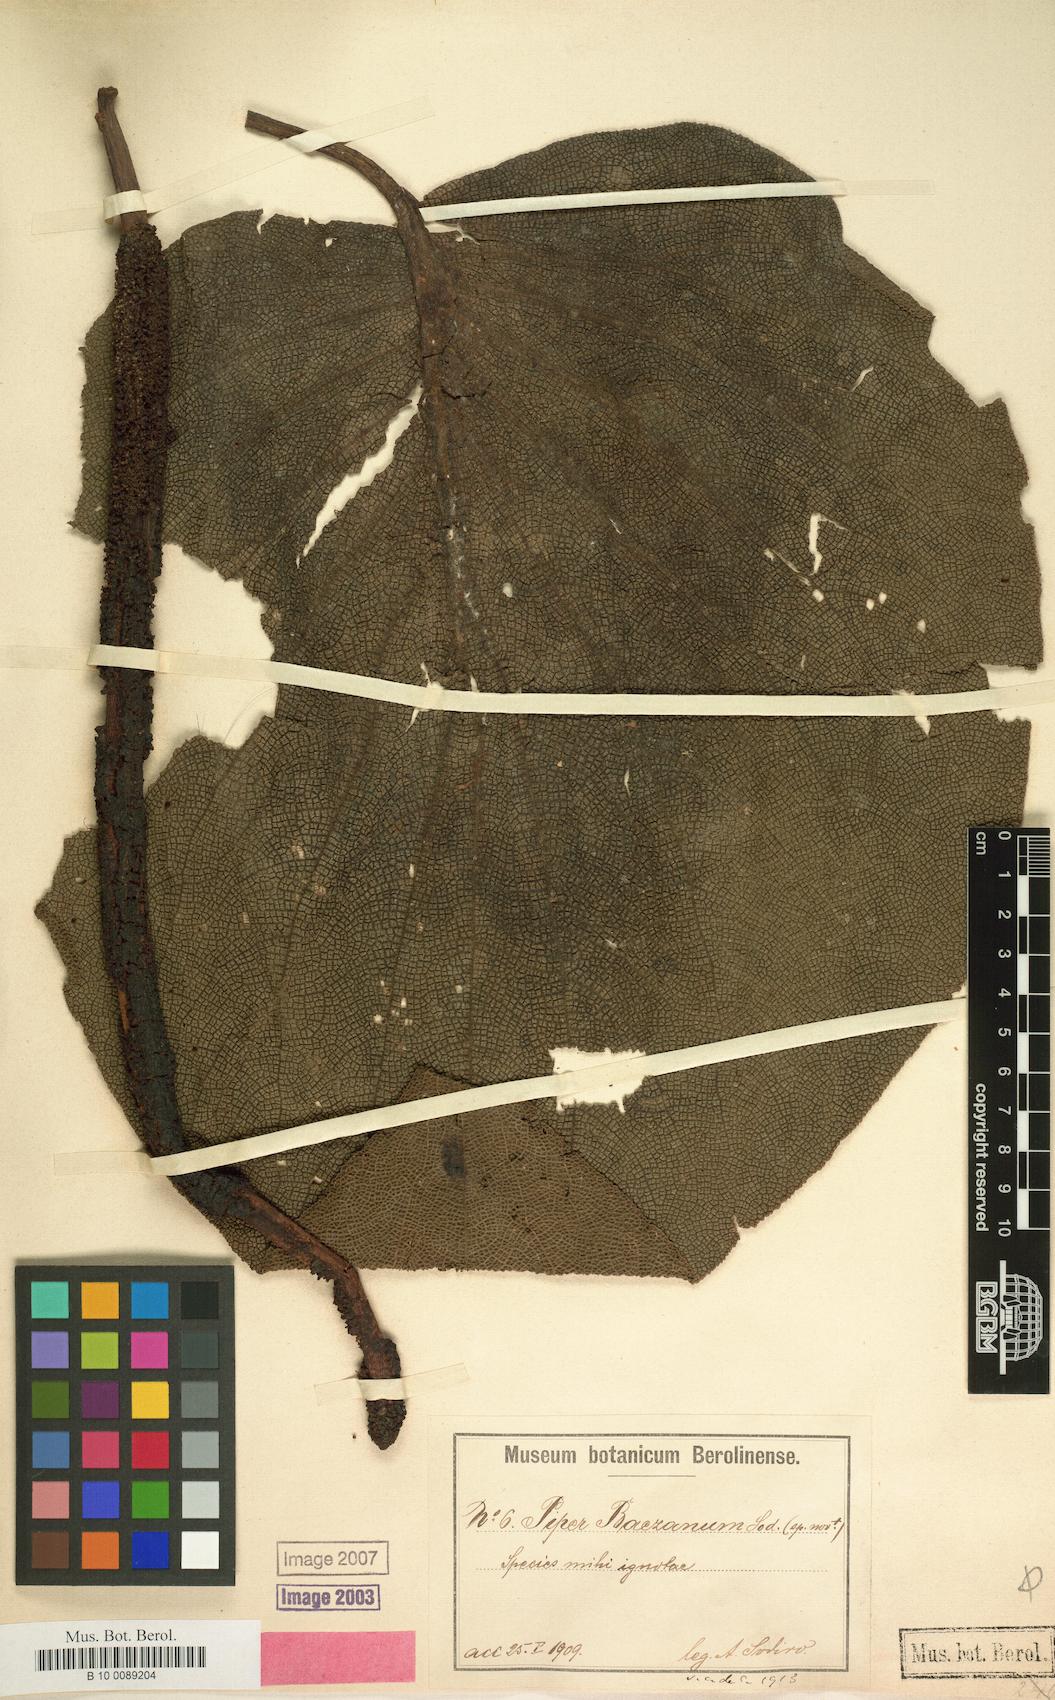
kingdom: Plantae
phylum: Tracheophyta
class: Magnoliopsida
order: Piperales
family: Piperaceae
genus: Piper
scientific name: Piper baezanum
